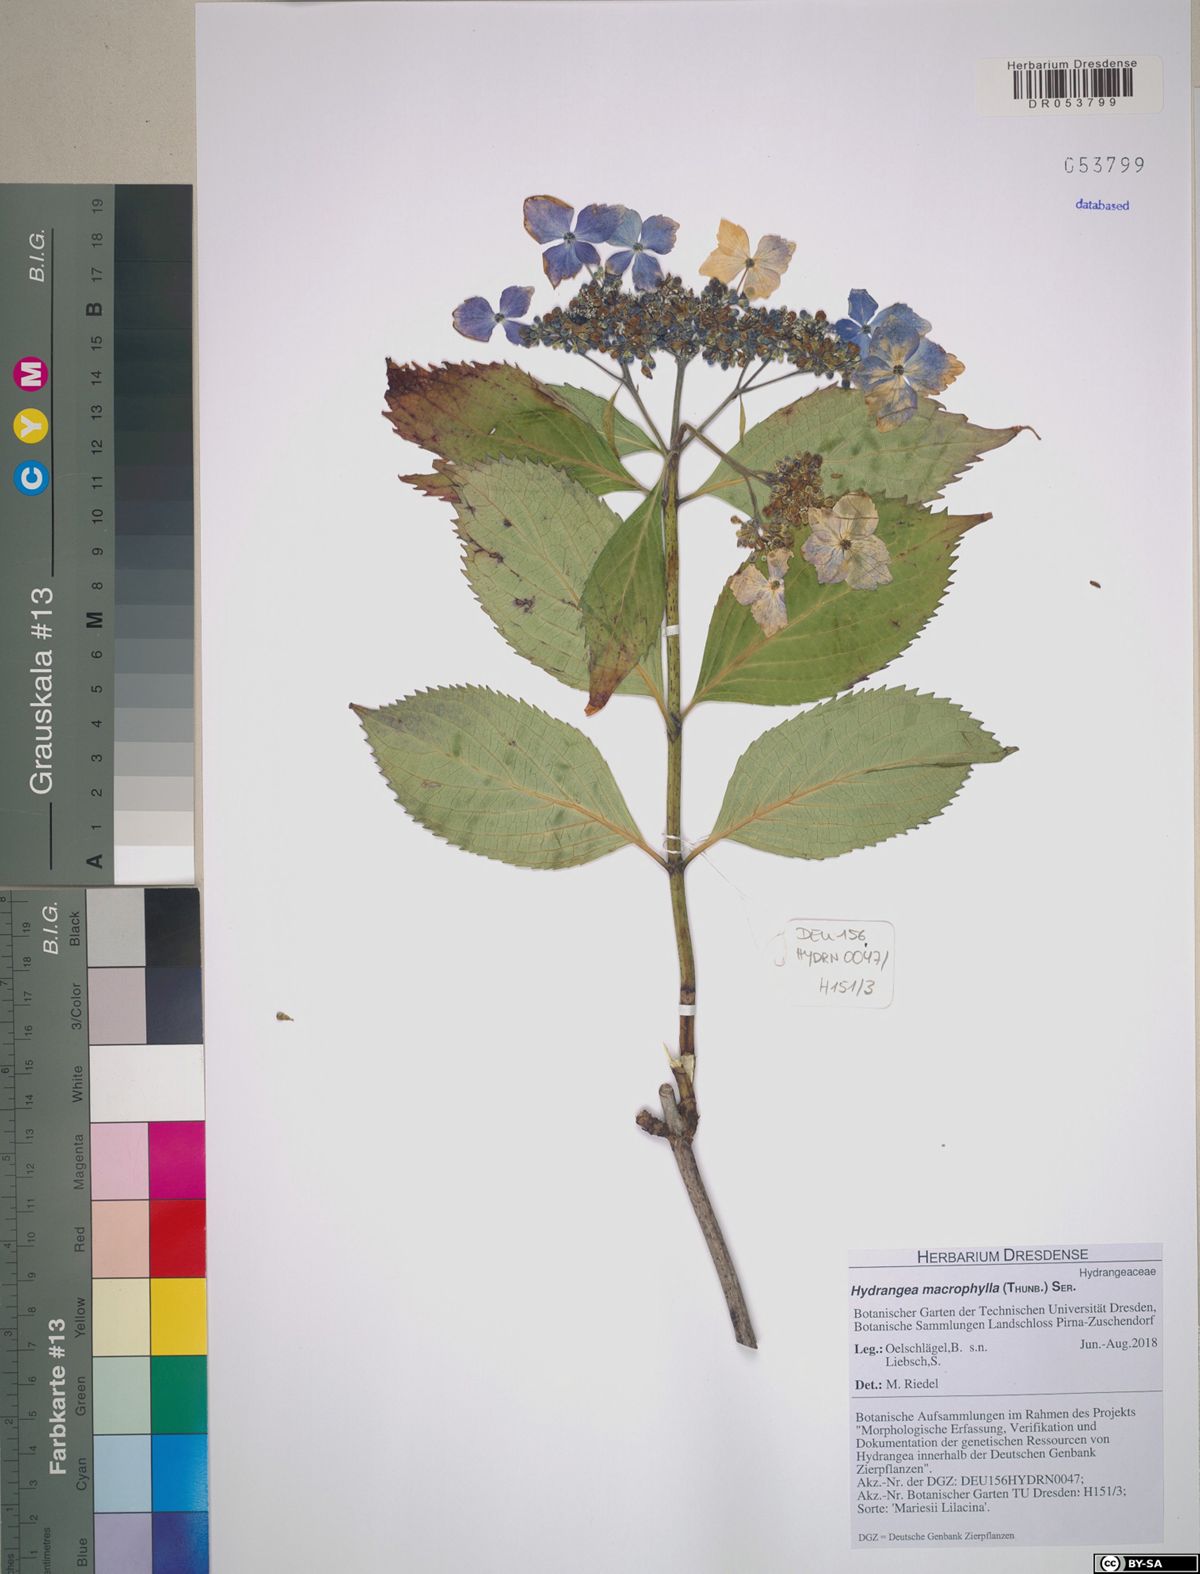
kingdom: Plantae
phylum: Tracheophyta
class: Magnoliopsida
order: Cornales
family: Hydrangeaceae
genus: Hydrangea
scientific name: Hydrangea macrophylla
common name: Hydrangea
